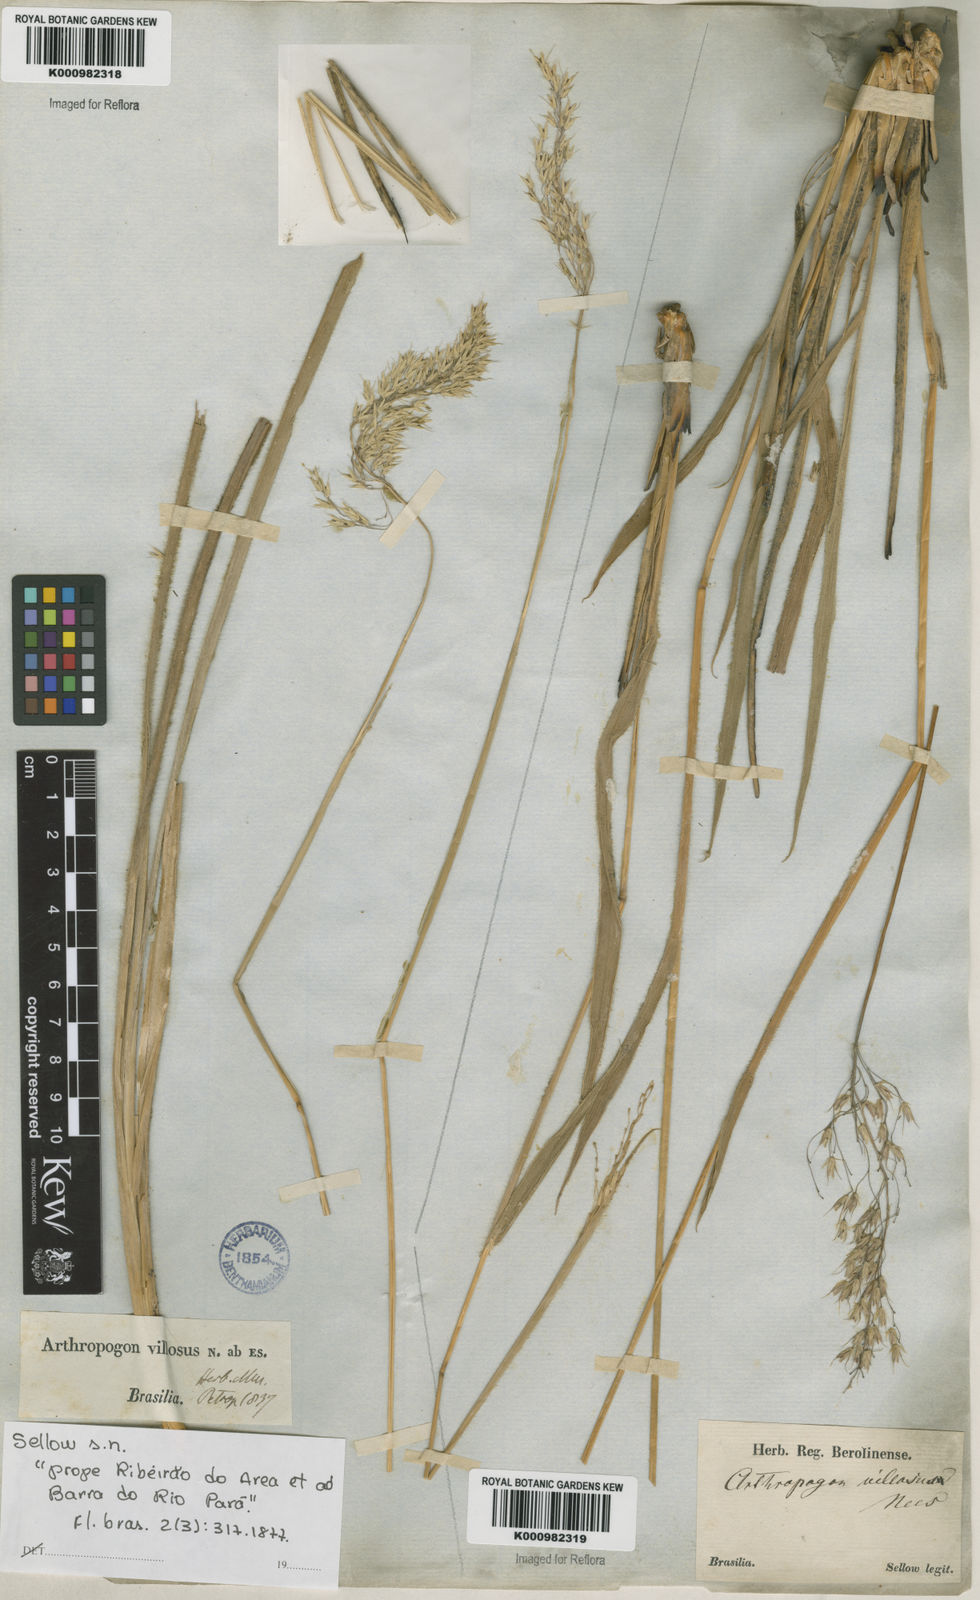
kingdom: Plantae
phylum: Tracheophyta
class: Liliopsida
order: Poales
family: Poaceae
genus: Arthropogon
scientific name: Arthropogon villosus
